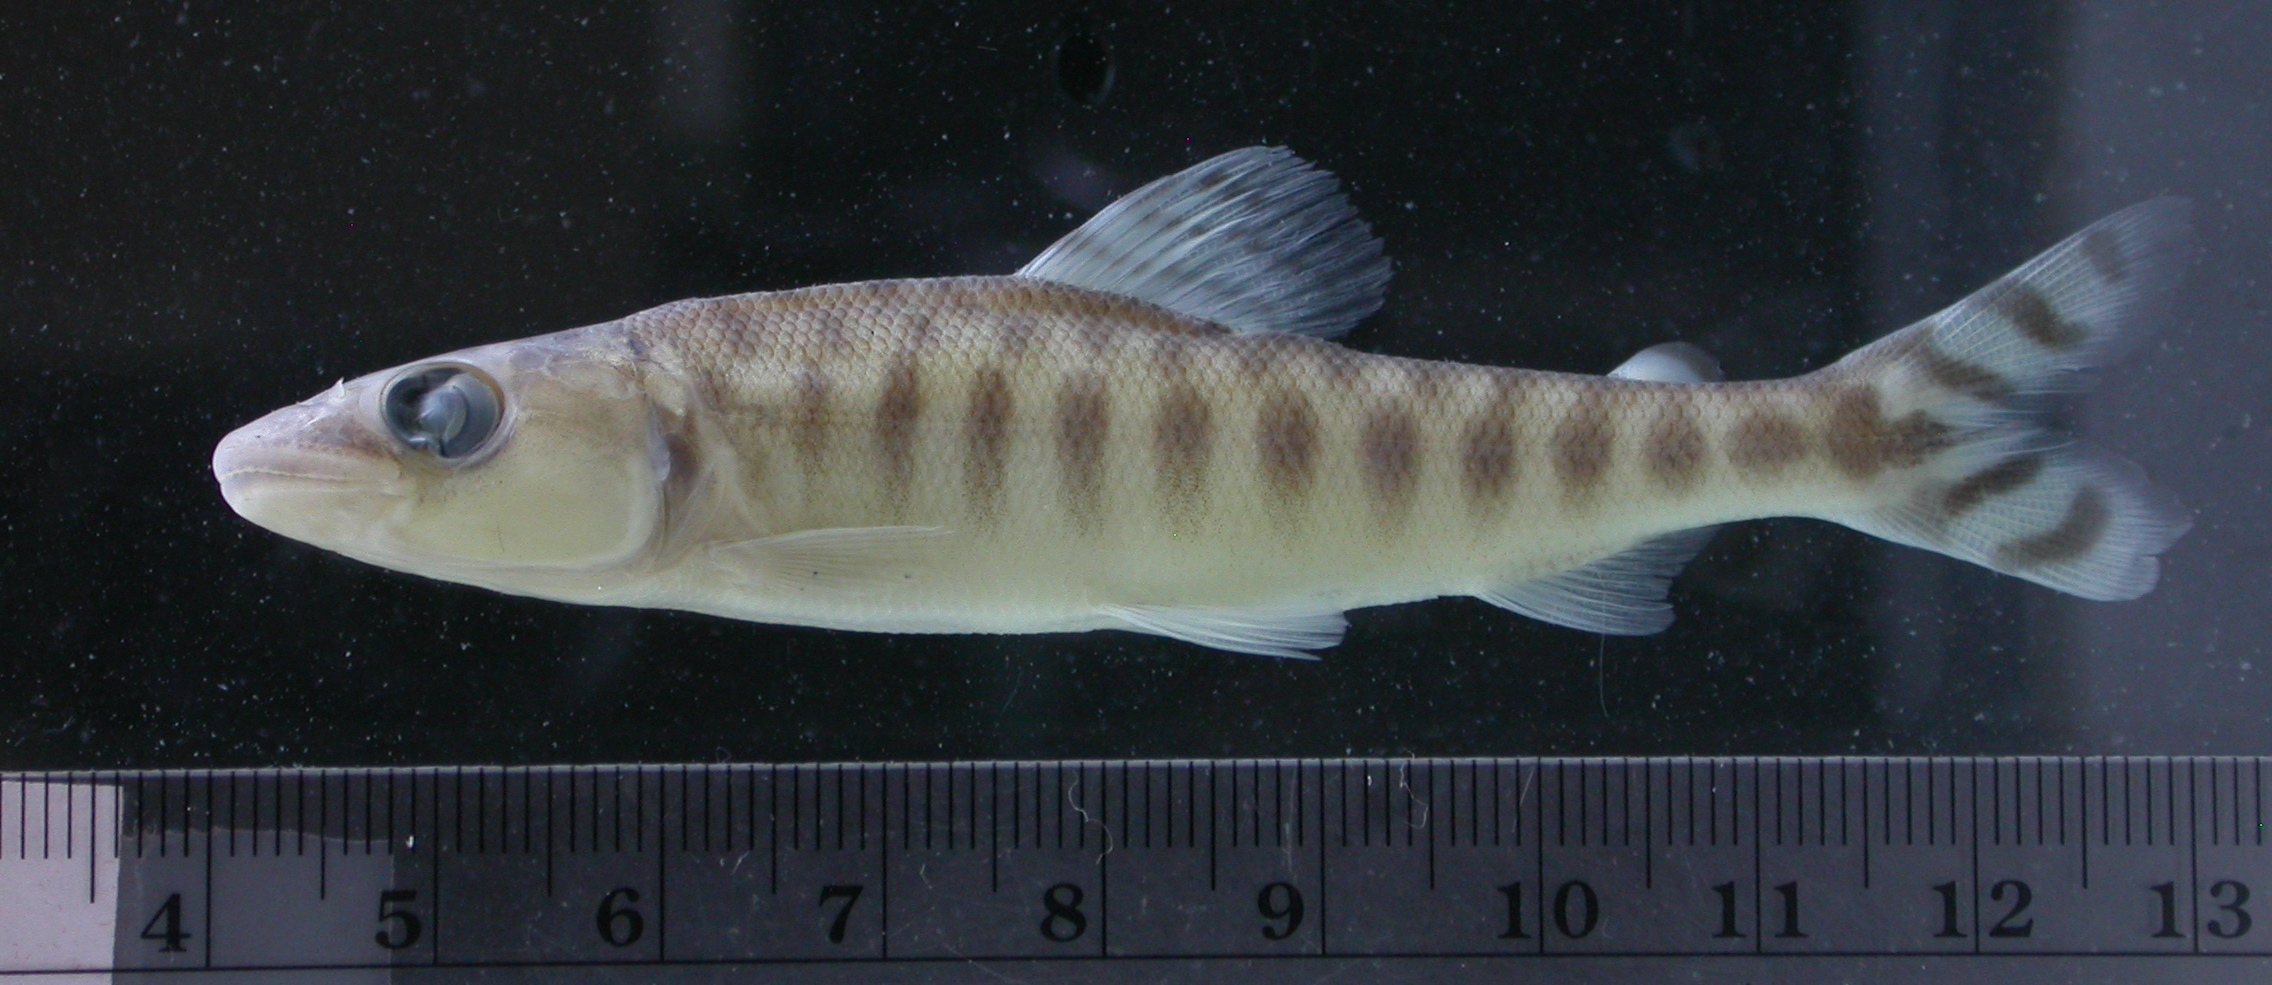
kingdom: Animalia
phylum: Chordata
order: Characiformes
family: Distichodontidae
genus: Eugnathichthys
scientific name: Eugnathichthys
